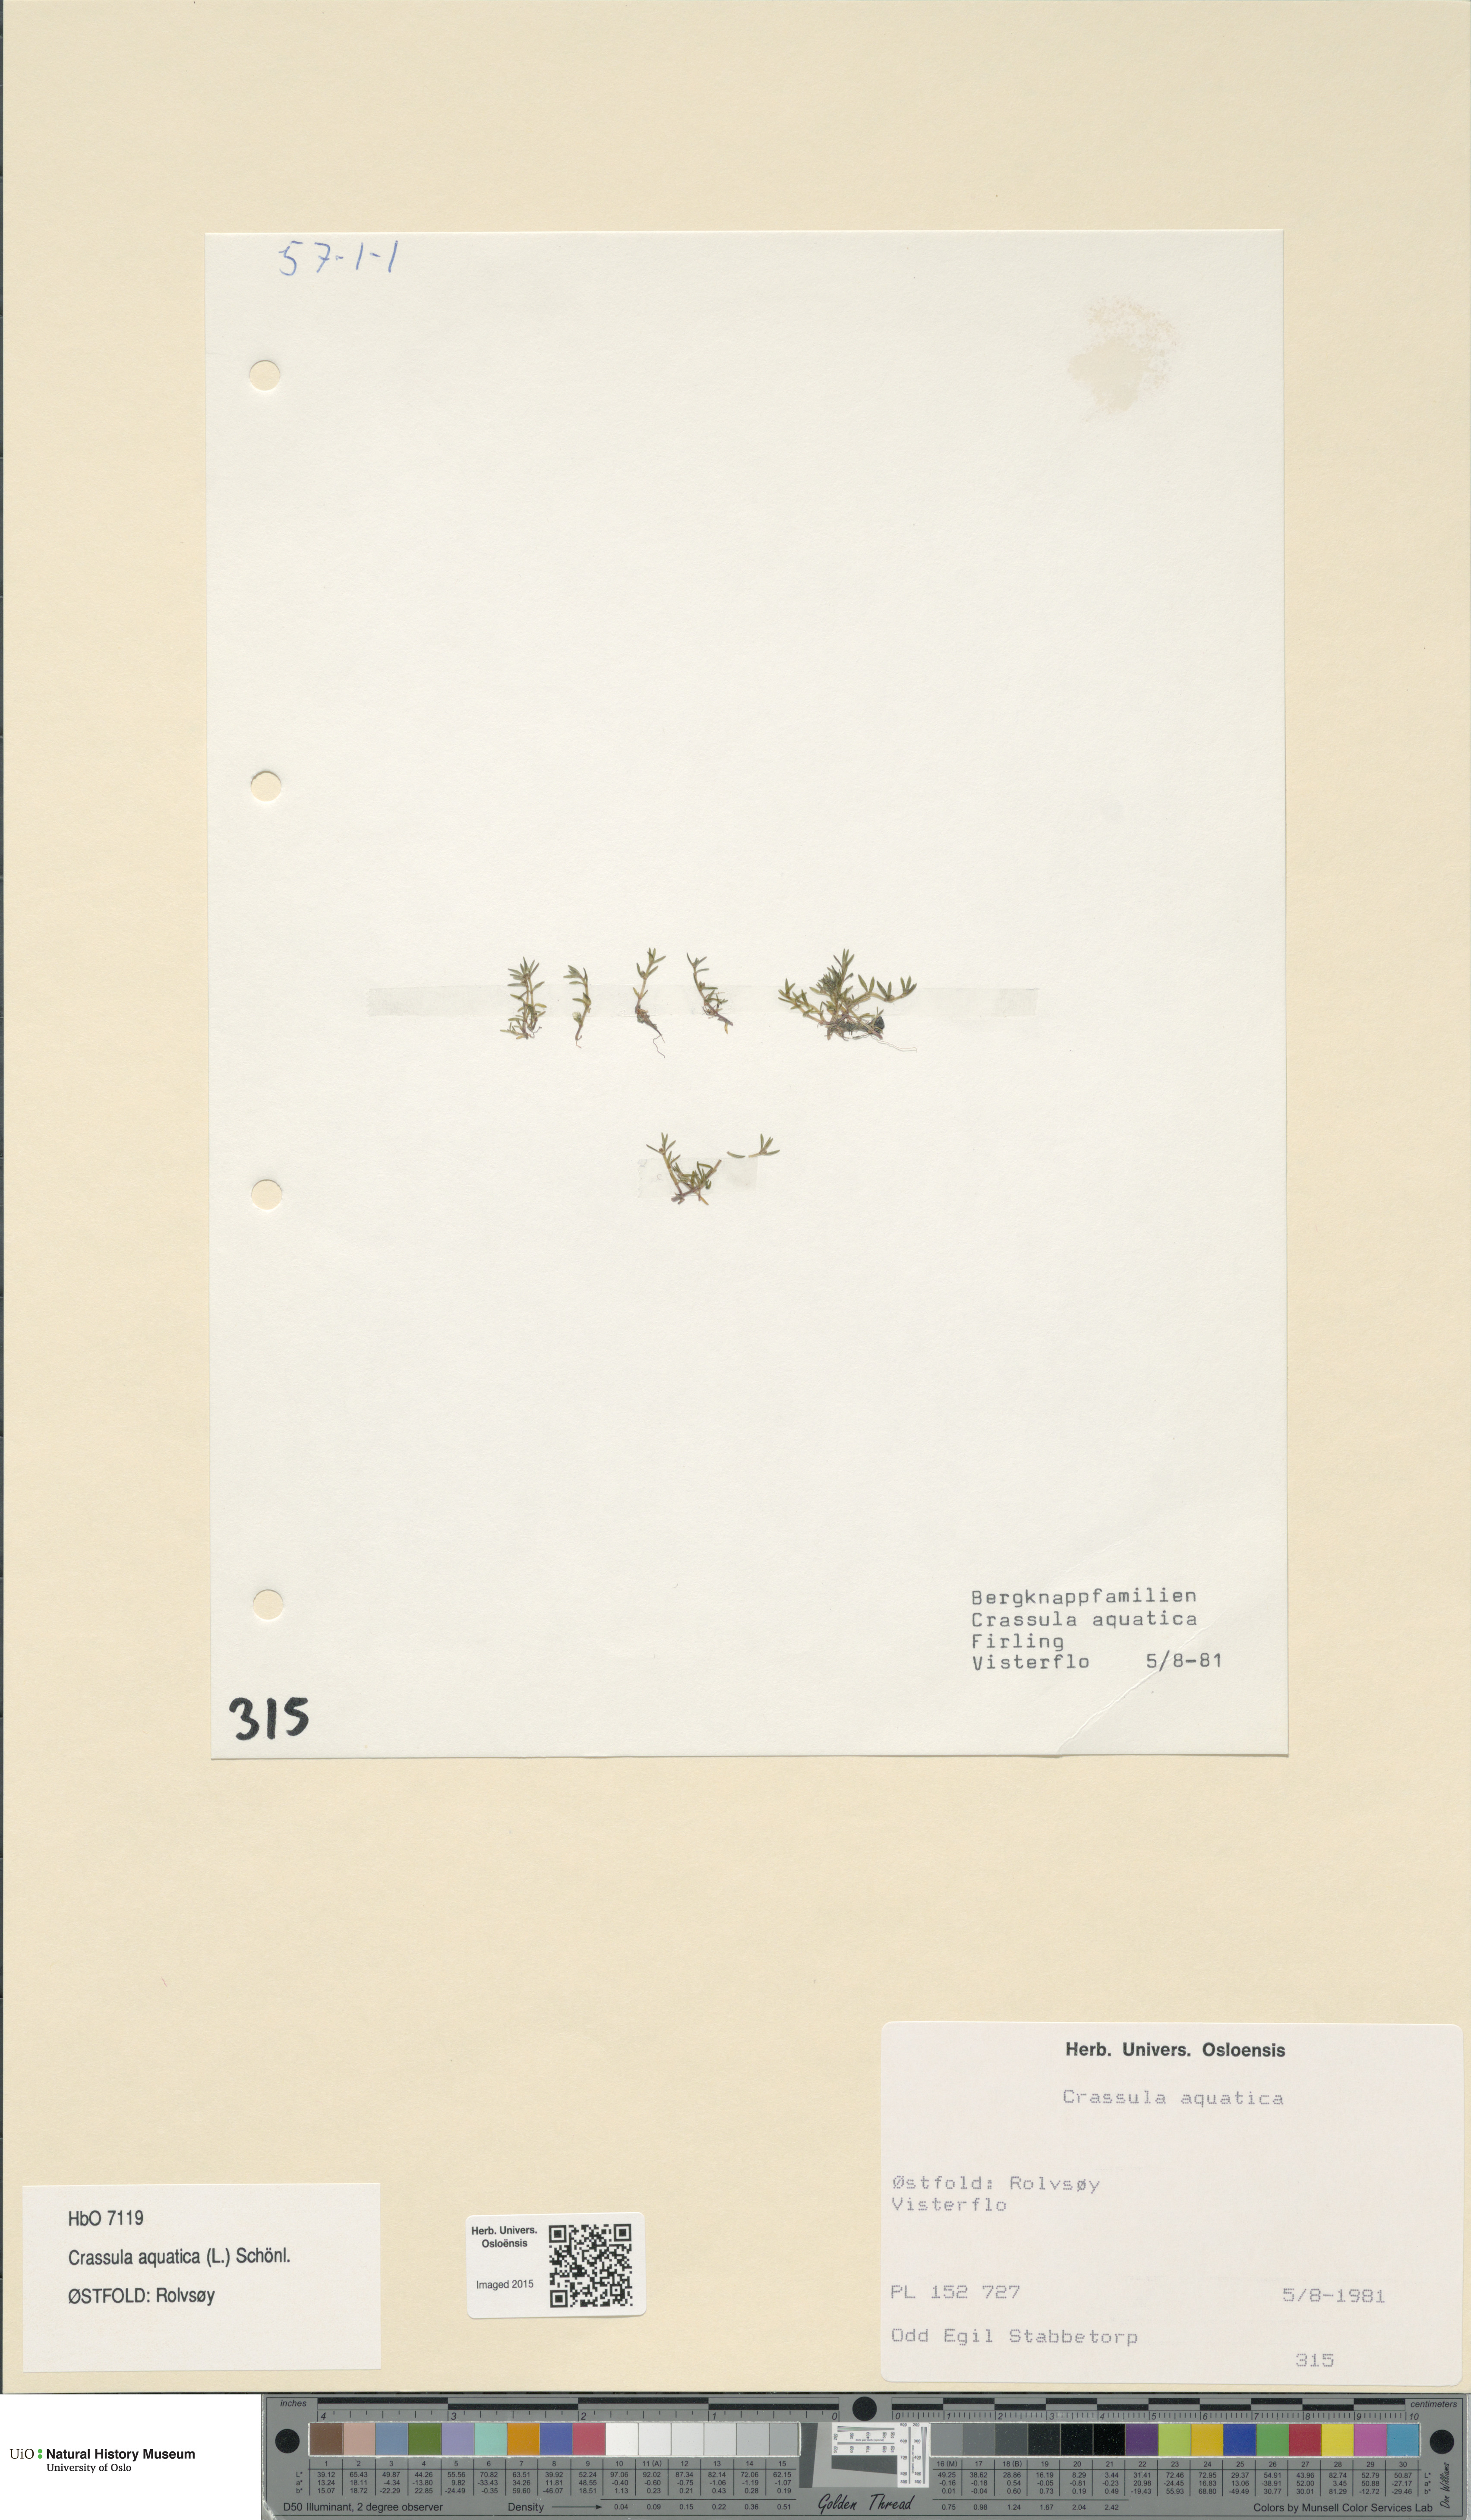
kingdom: Plantae
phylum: Tracheophyta
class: Magnoliopsida
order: Saxifragales
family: Crassulaceae
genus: Crassula
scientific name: Crassula aquatica
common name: Pigmyweed
